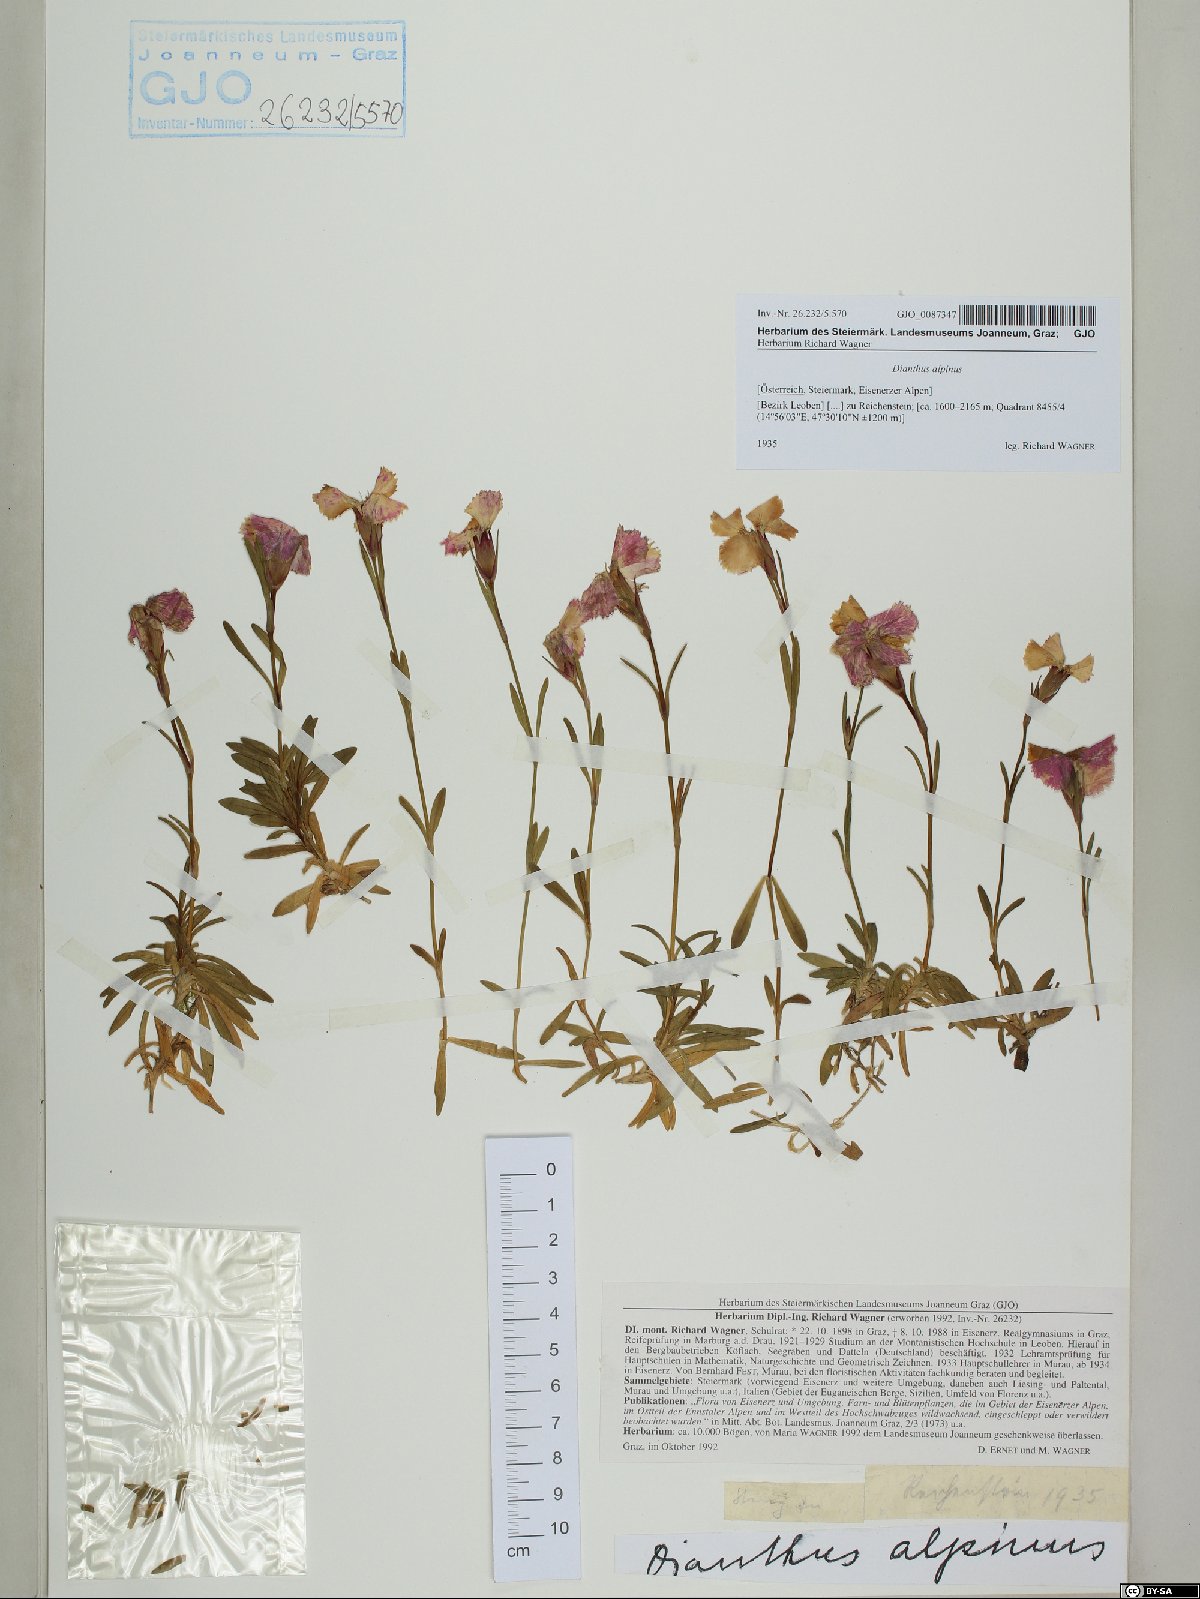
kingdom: Plantae
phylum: Tracheophyta
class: Magnoliopsida
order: Caryophyllales
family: Caryophyllaceae
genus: Dianthus
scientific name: Dianthus alpinus
